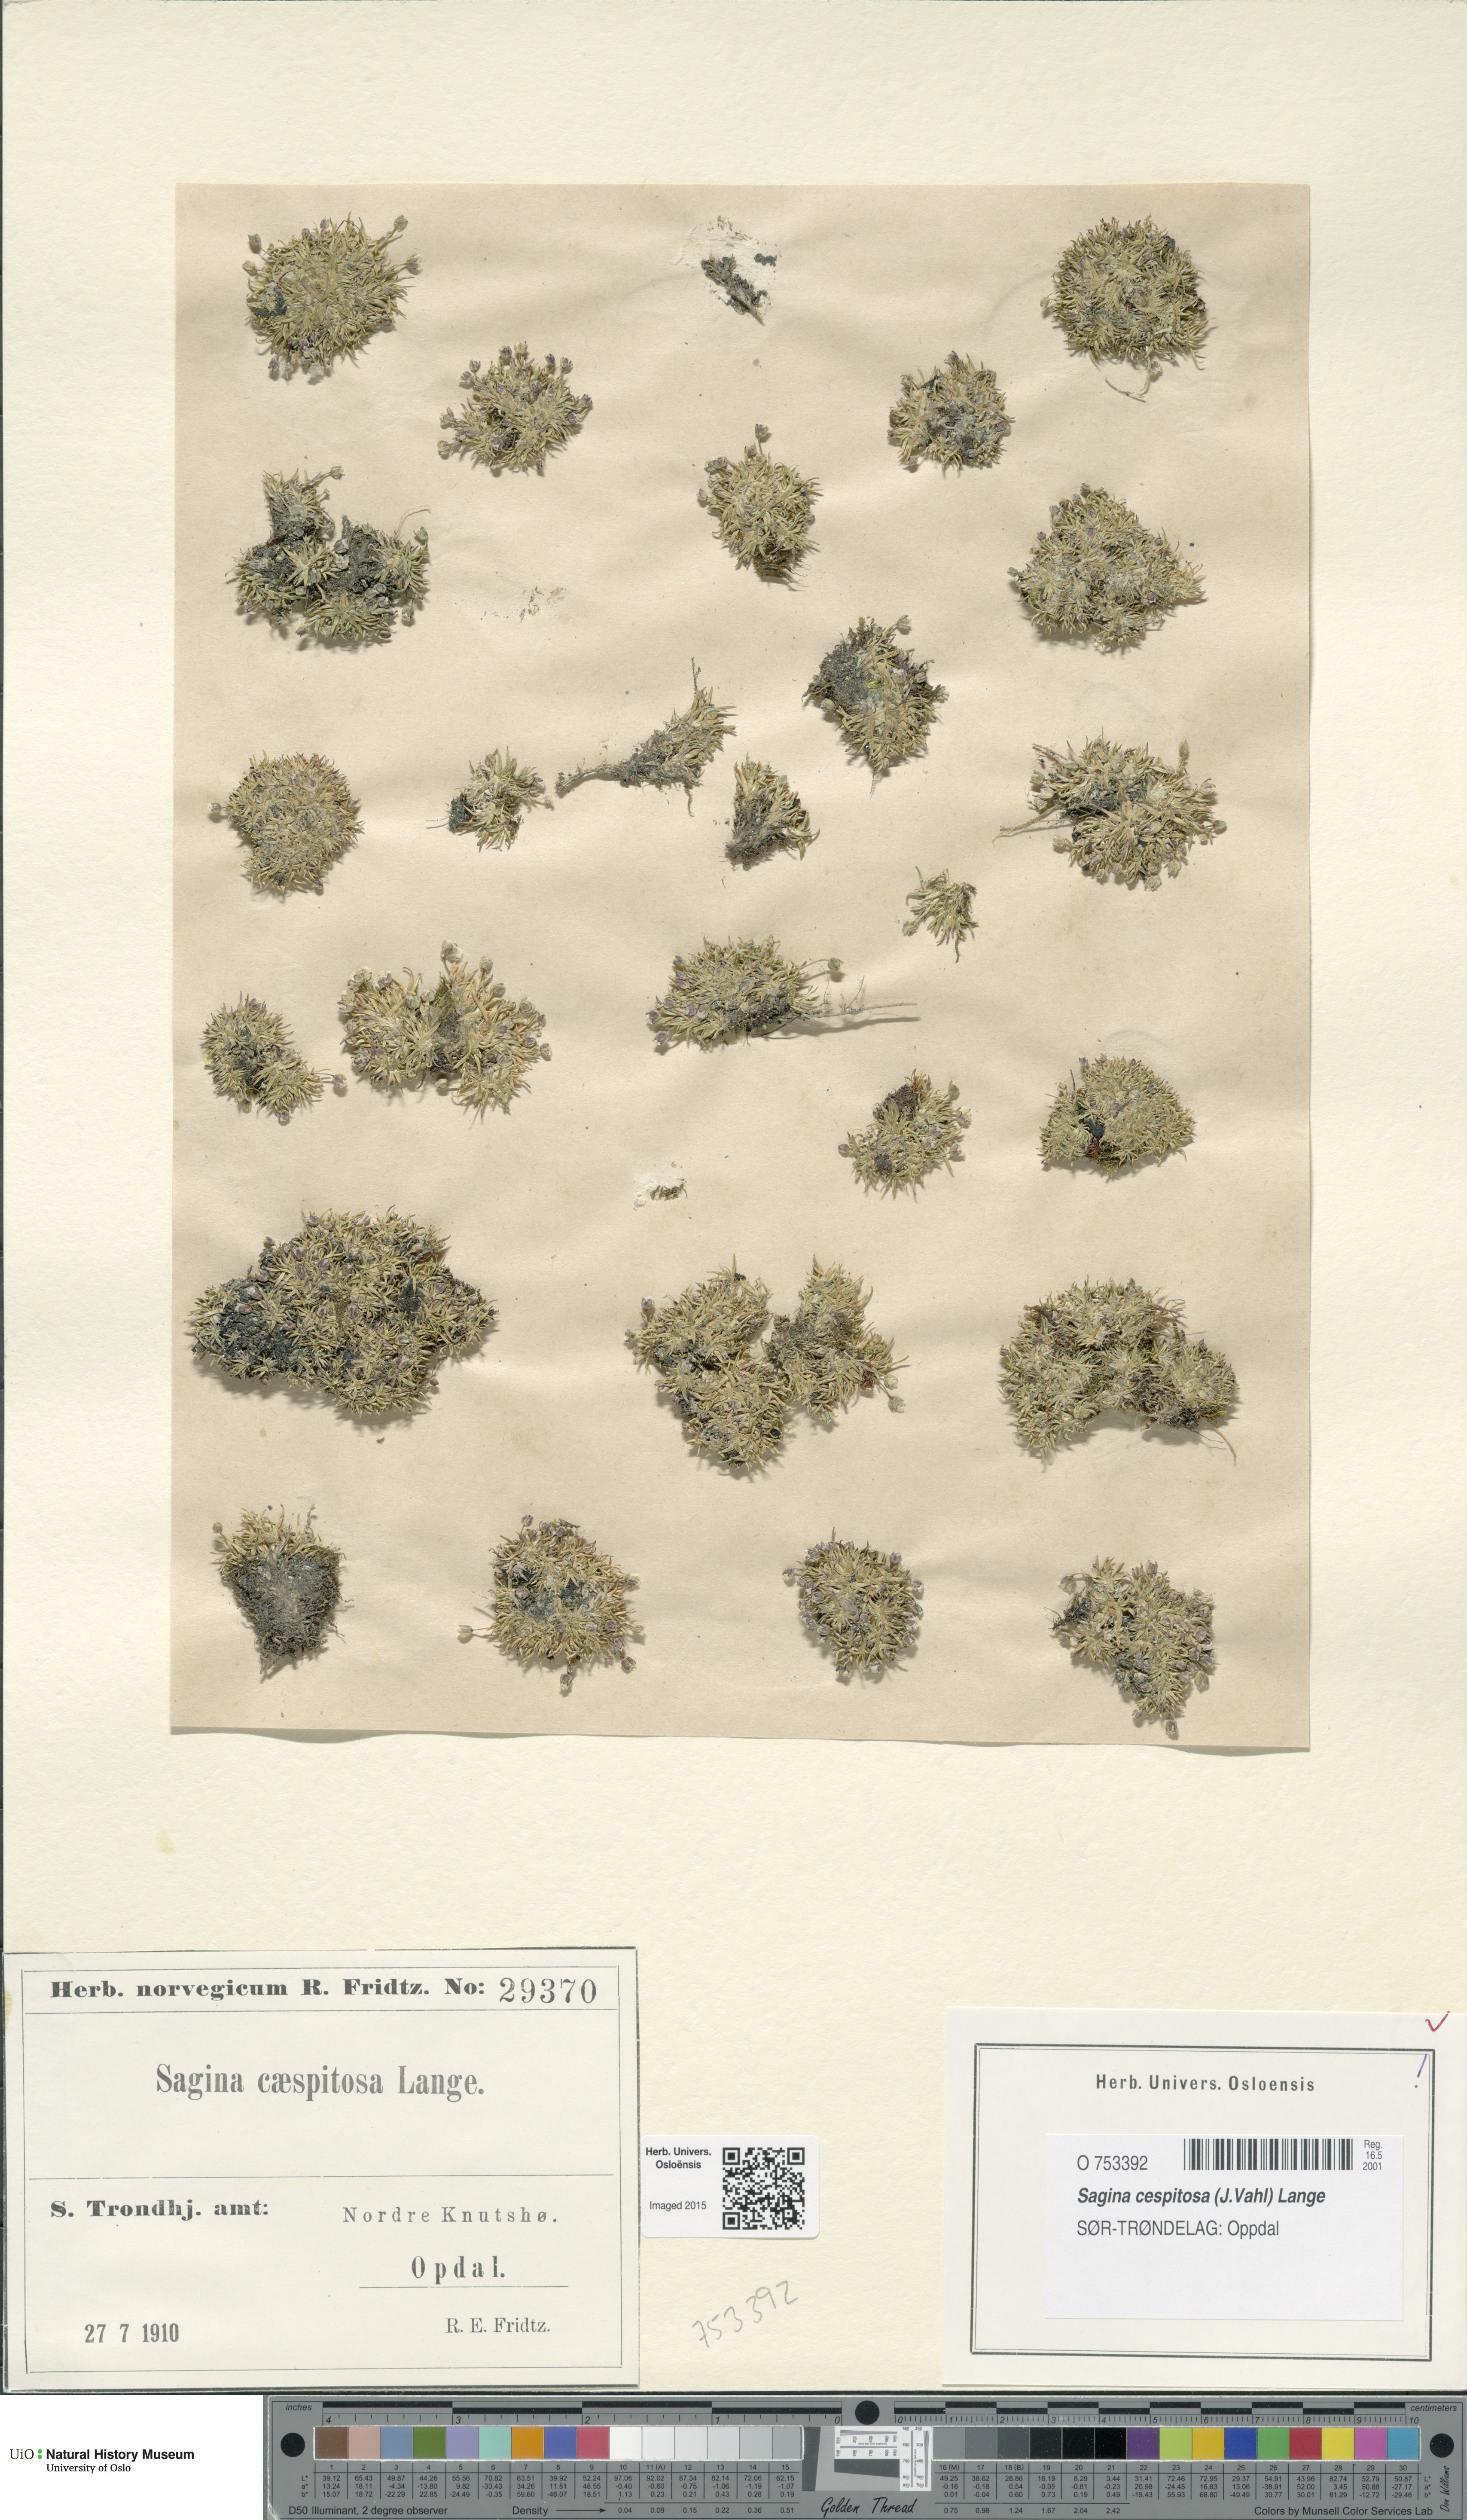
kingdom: Plantae
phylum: Tracheophyta
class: Magnoliopsida
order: Caryophyllales
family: Caryophyllaceae
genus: Sagina
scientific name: Sagina caespitosa
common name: Tufted pearlwort
